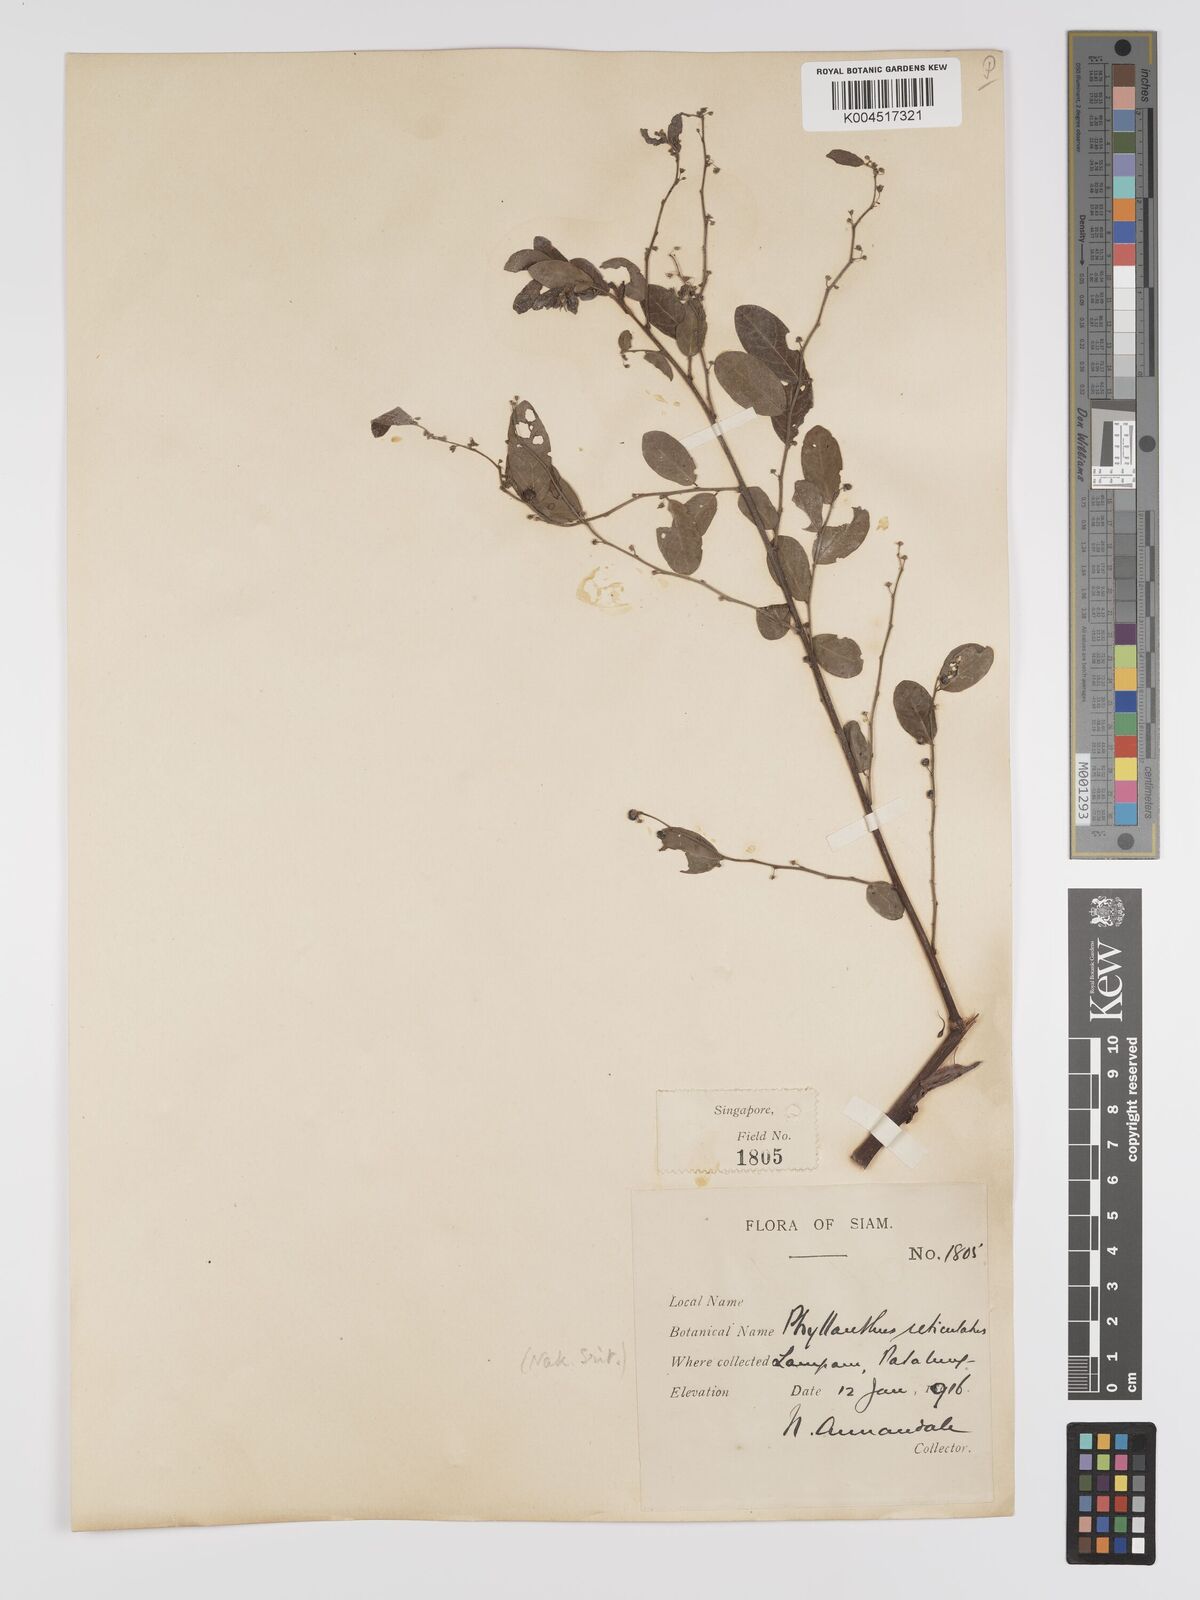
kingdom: Plantae
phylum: Tracheophyta
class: Magnoliopsida
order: Malpighiales
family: Phyllanthaceae
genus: Phyllanthus
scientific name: Phyllanthus reticulatus
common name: Potato bush
